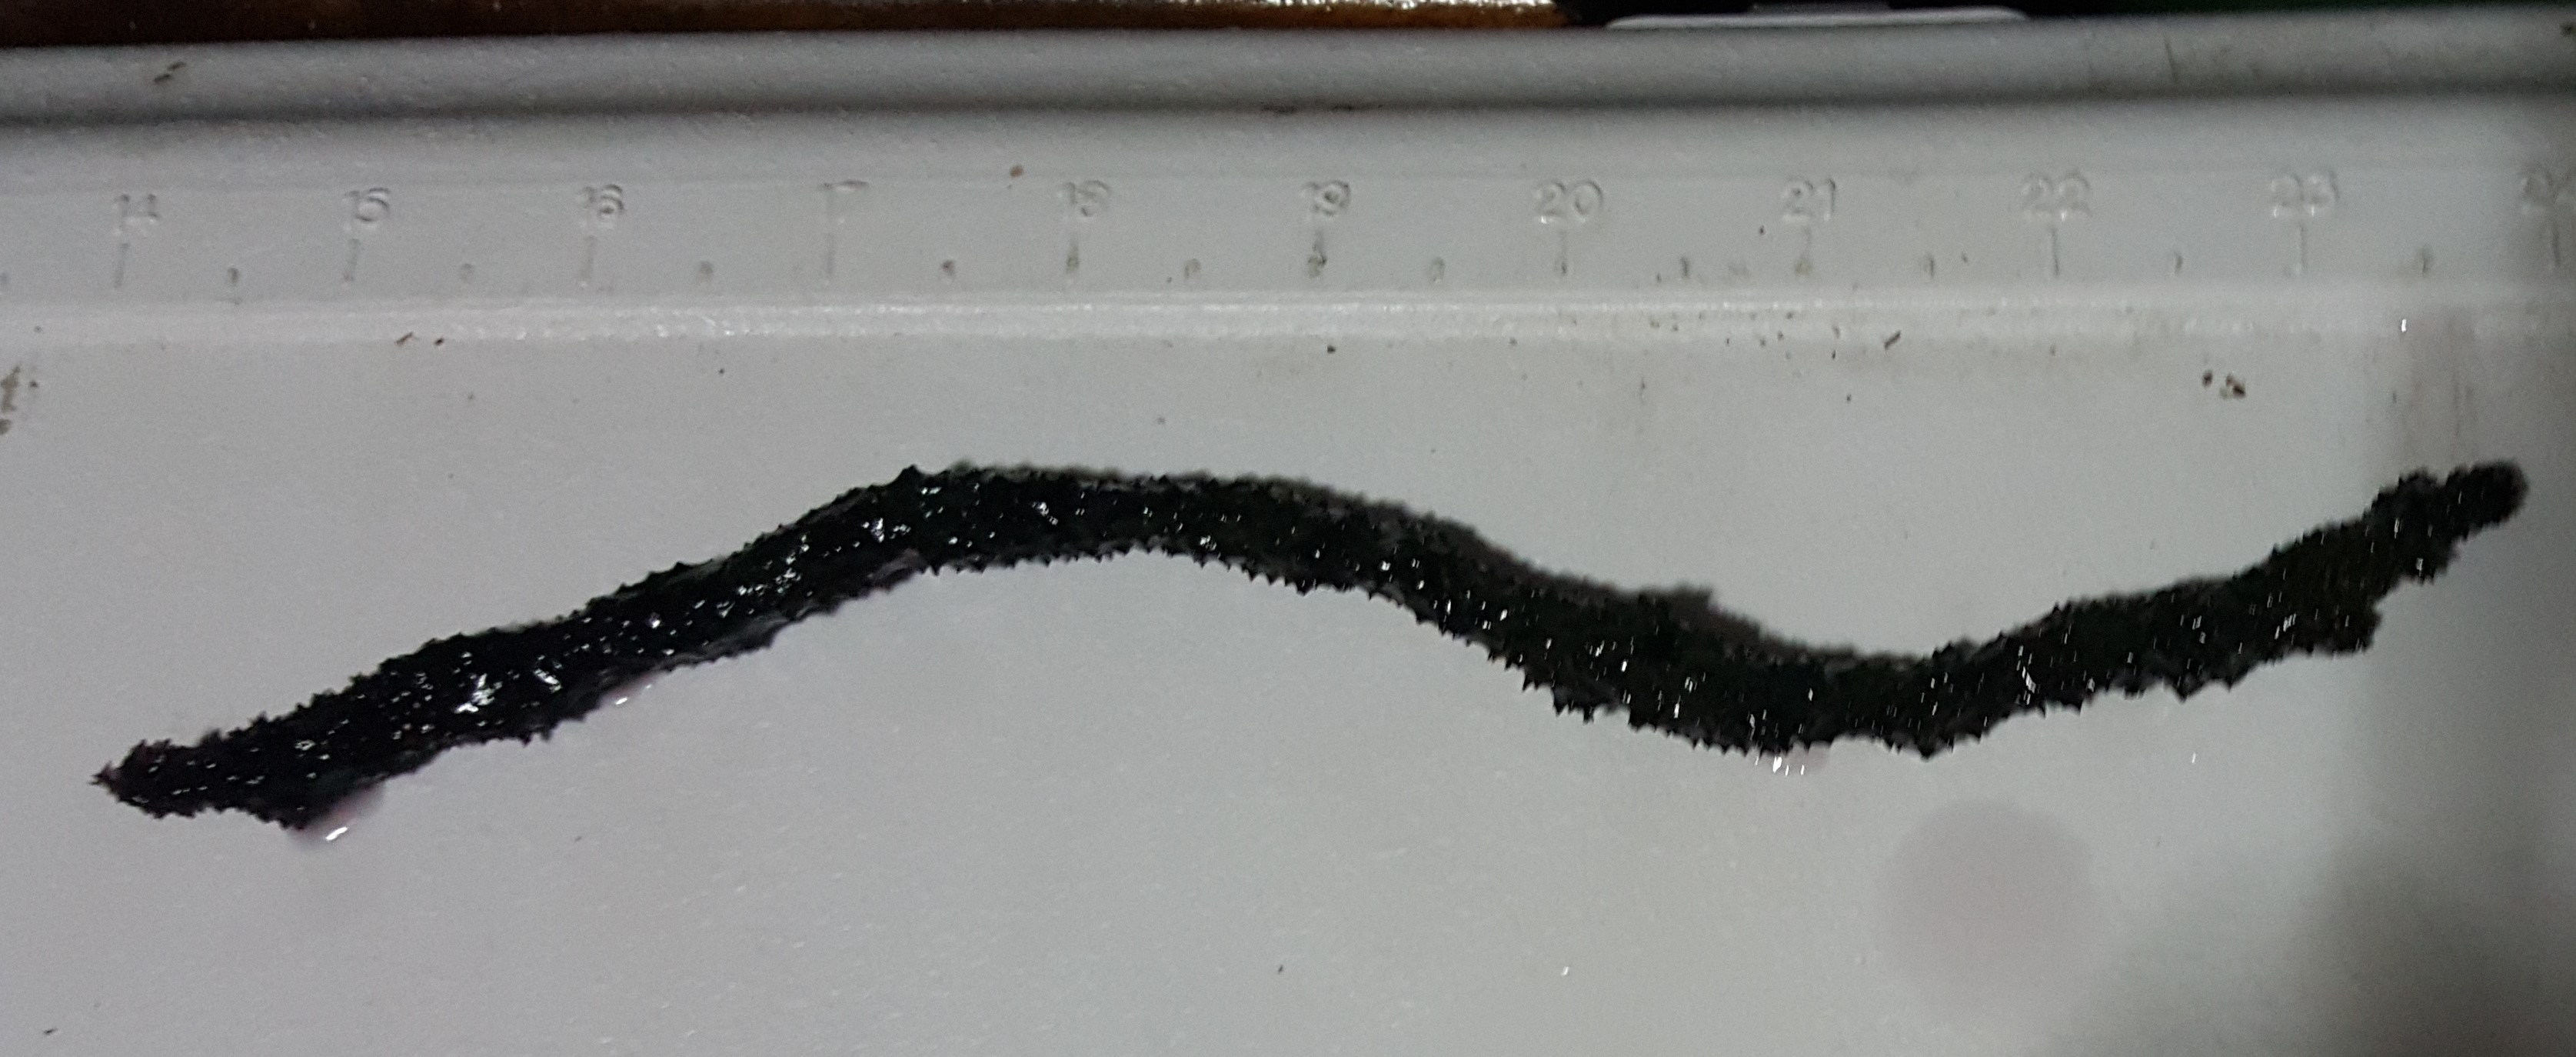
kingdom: Animalia
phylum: Porifera
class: Demospongiae
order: Poecilosclerida
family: Iotrochotidae
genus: Iotrochota
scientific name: Iotrochota birotulata
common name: Purple bleeding sponge
